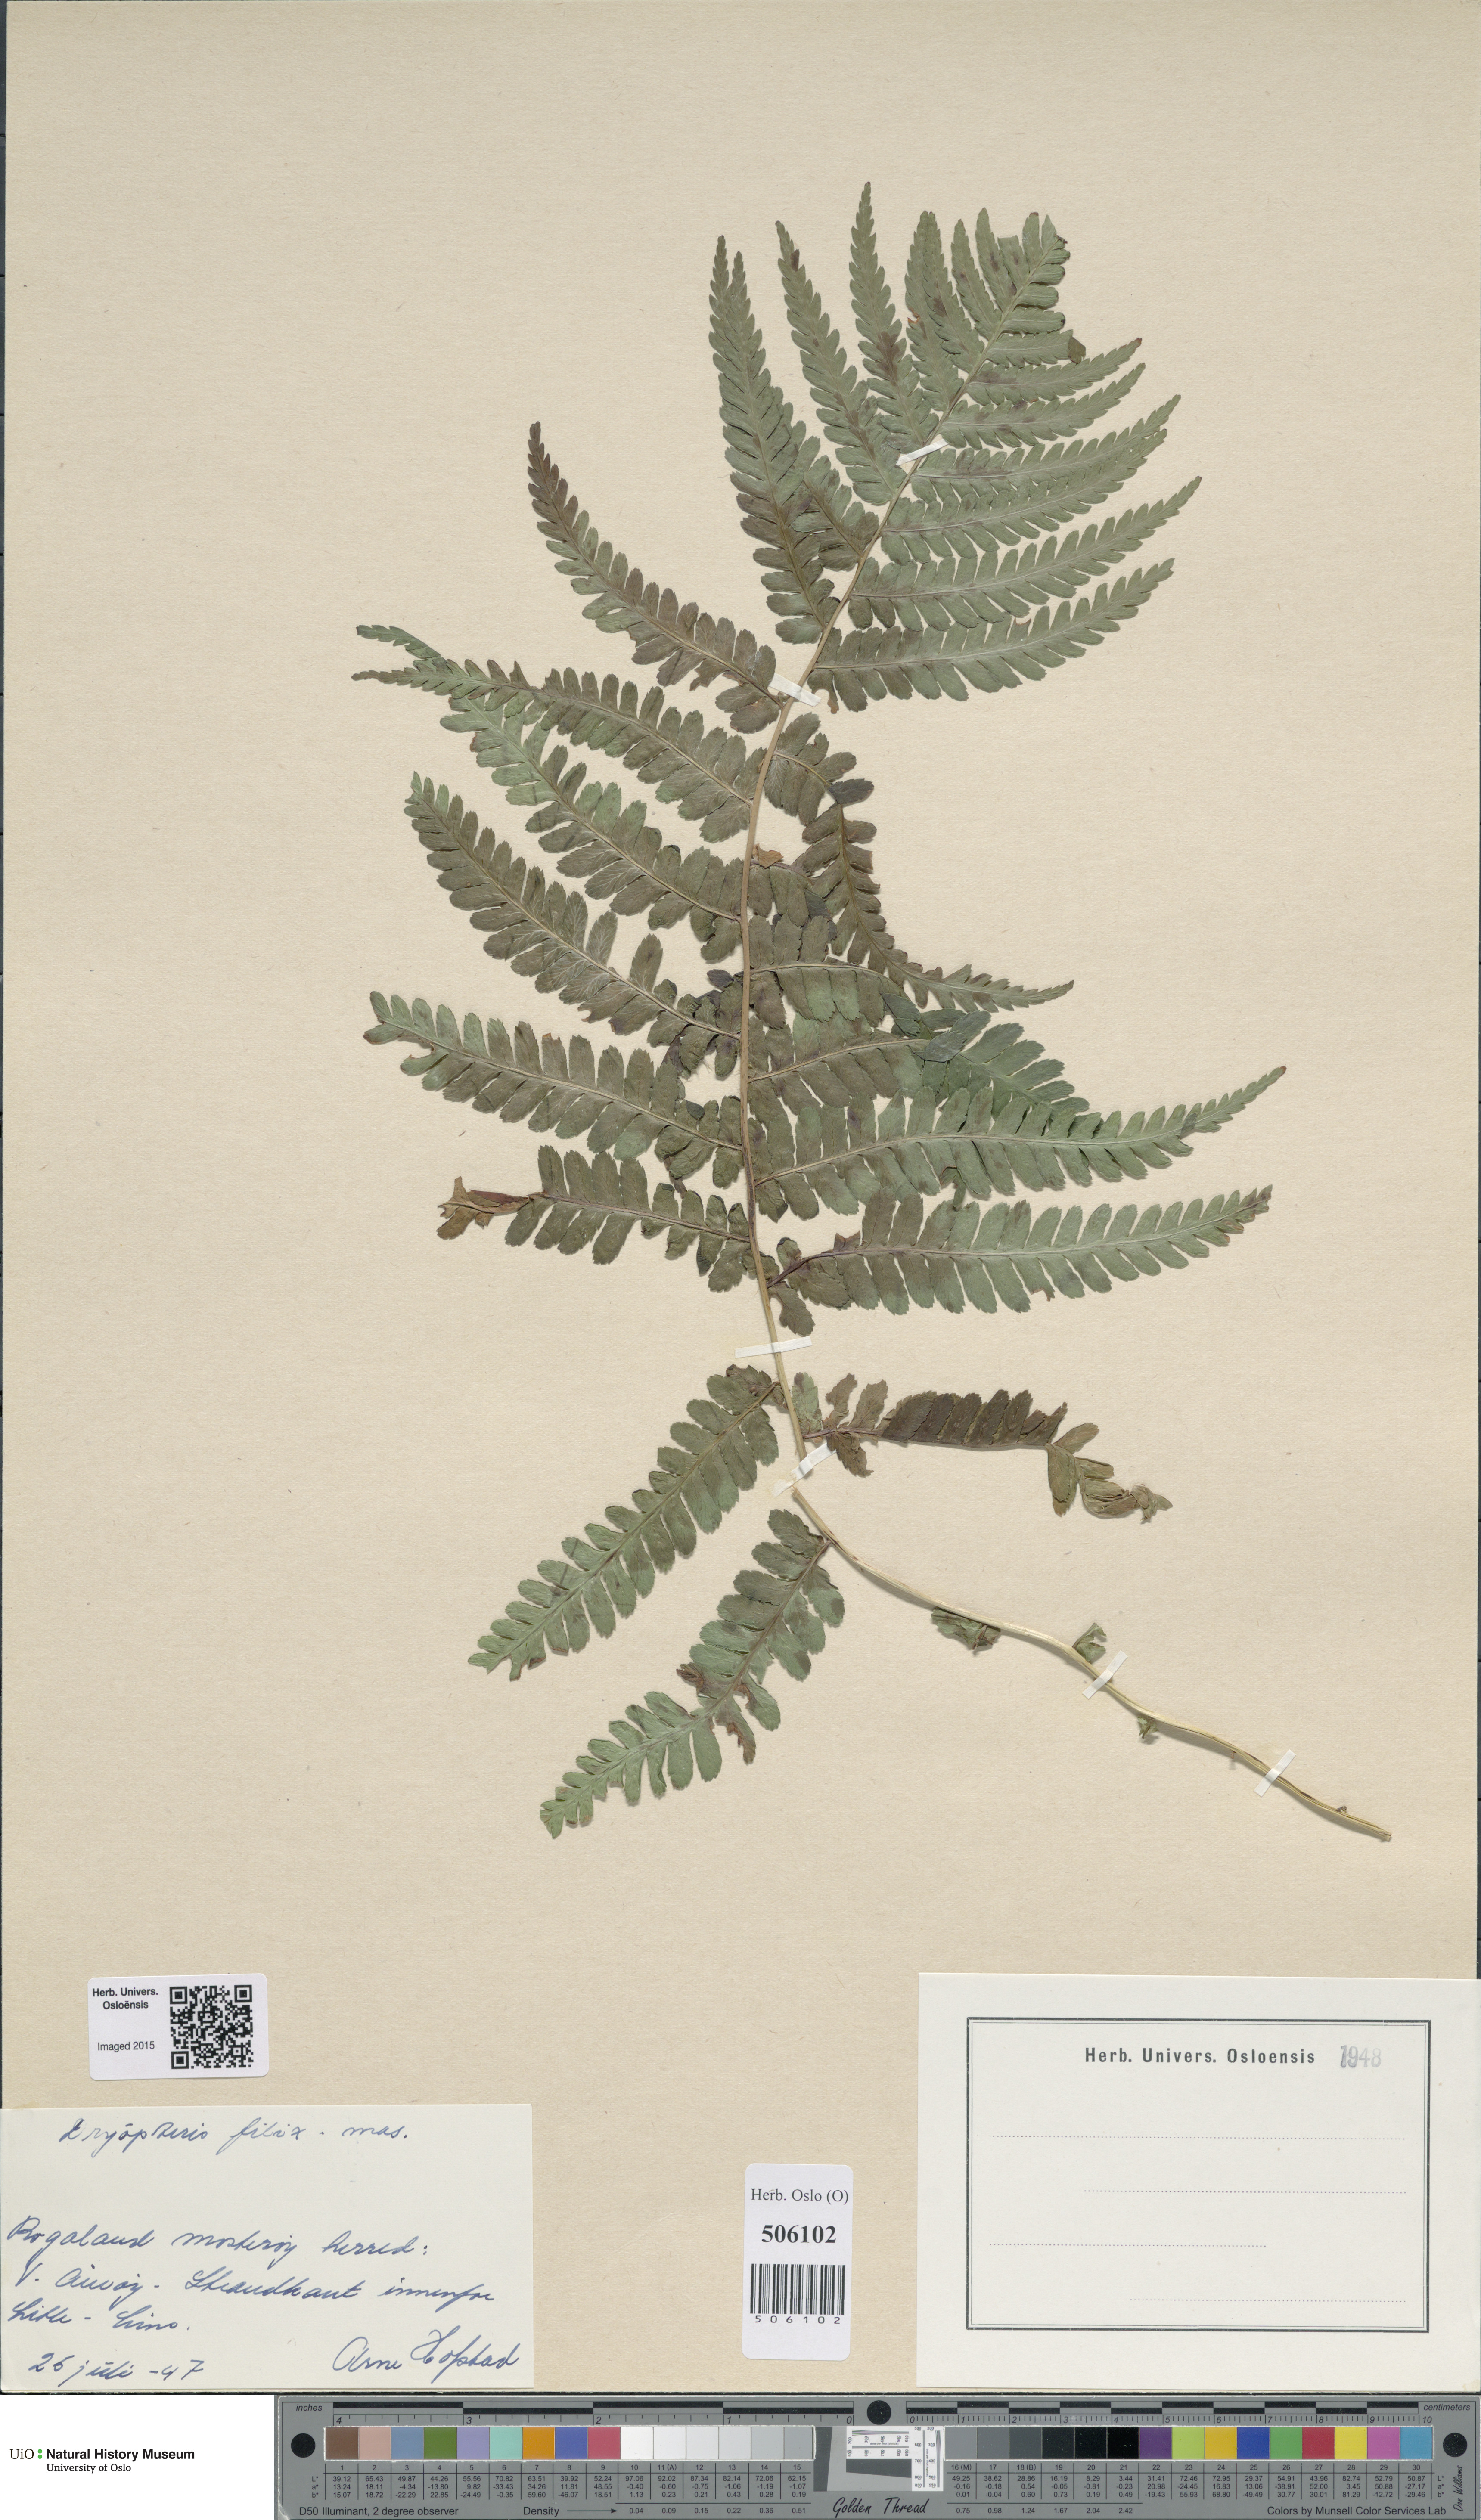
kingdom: Plantae
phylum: Tracheophyta
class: Polypodiopsida
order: Polypodiales
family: Dryopteridaceae
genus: Dryopteris
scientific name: Dryopteris filix-mas
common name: Male fern
